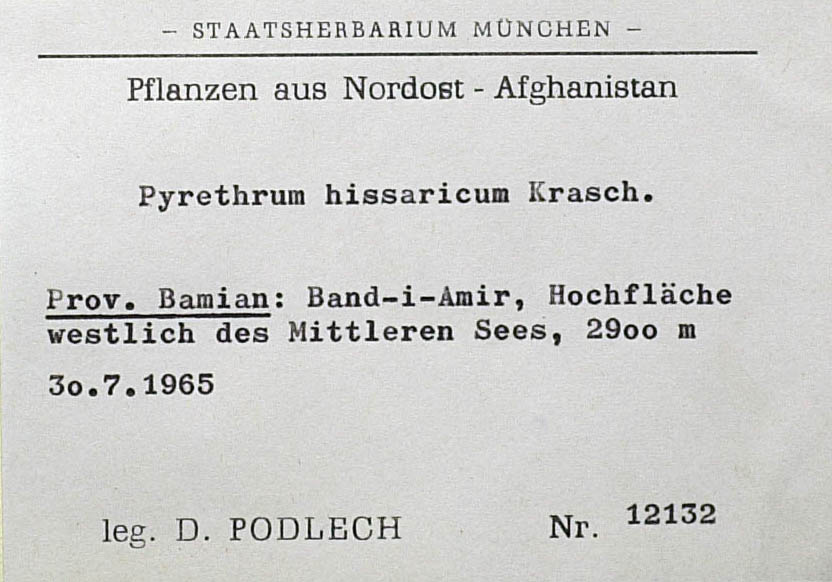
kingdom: Plantae
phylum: Tracheophyta
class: Magnoliopsida
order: Asterales
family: Asteraceae
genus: Tanacetum
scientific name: Tanacetum bamianicum
